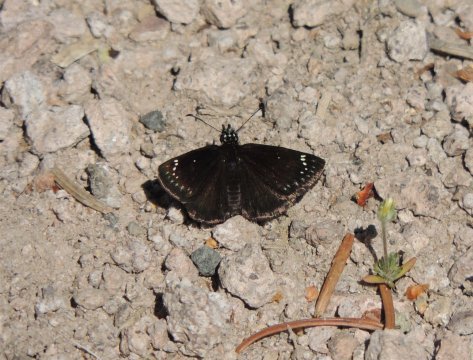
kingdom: Animalia
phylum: Arthropoda
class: Insecta
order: Lepidoptera
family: Hesperiidae
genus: Pholisora
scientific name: Pholisora catullus
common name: Common Sootywing
